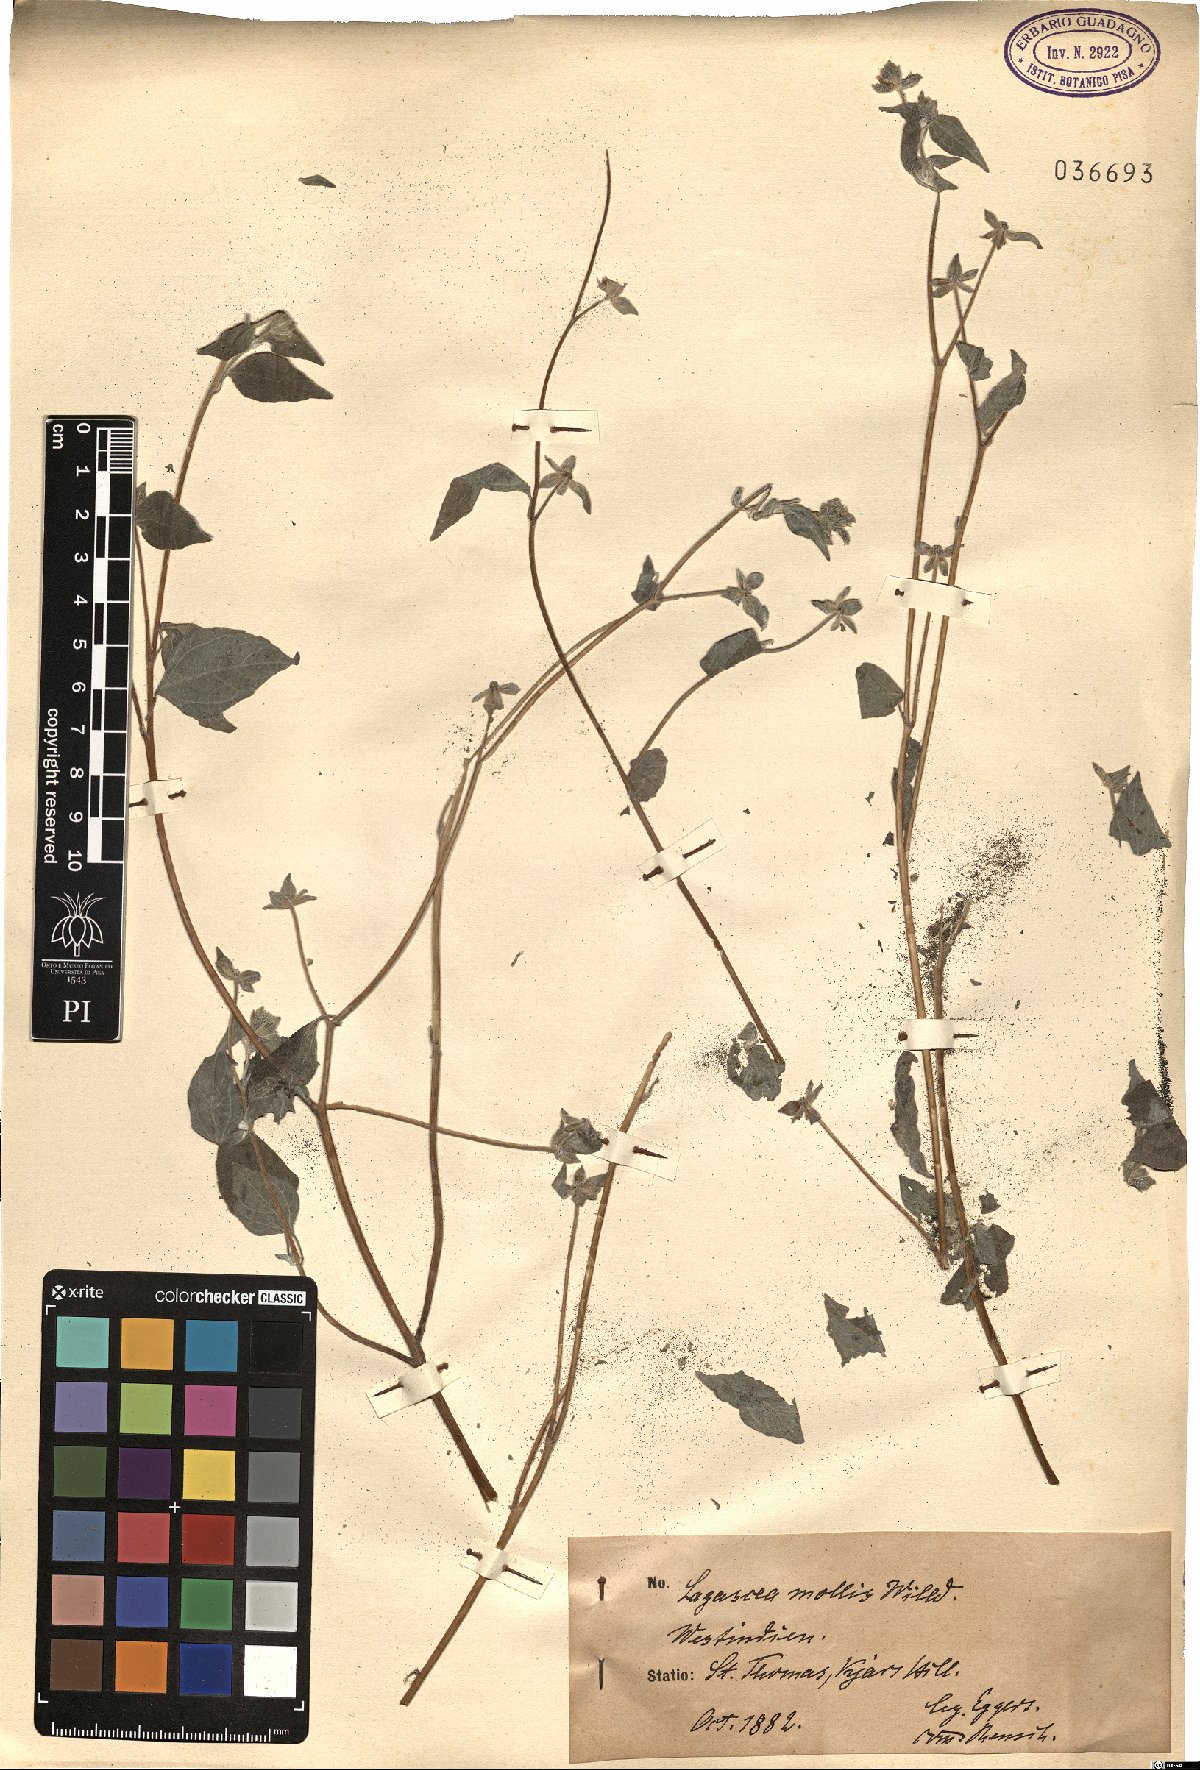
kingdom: Plantae
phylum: Tracheophyta
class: Magnoliopsida
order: Asterales
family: Asteraceae
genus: Lagascea
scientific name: Lagascea mollis
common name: Silkleaf
